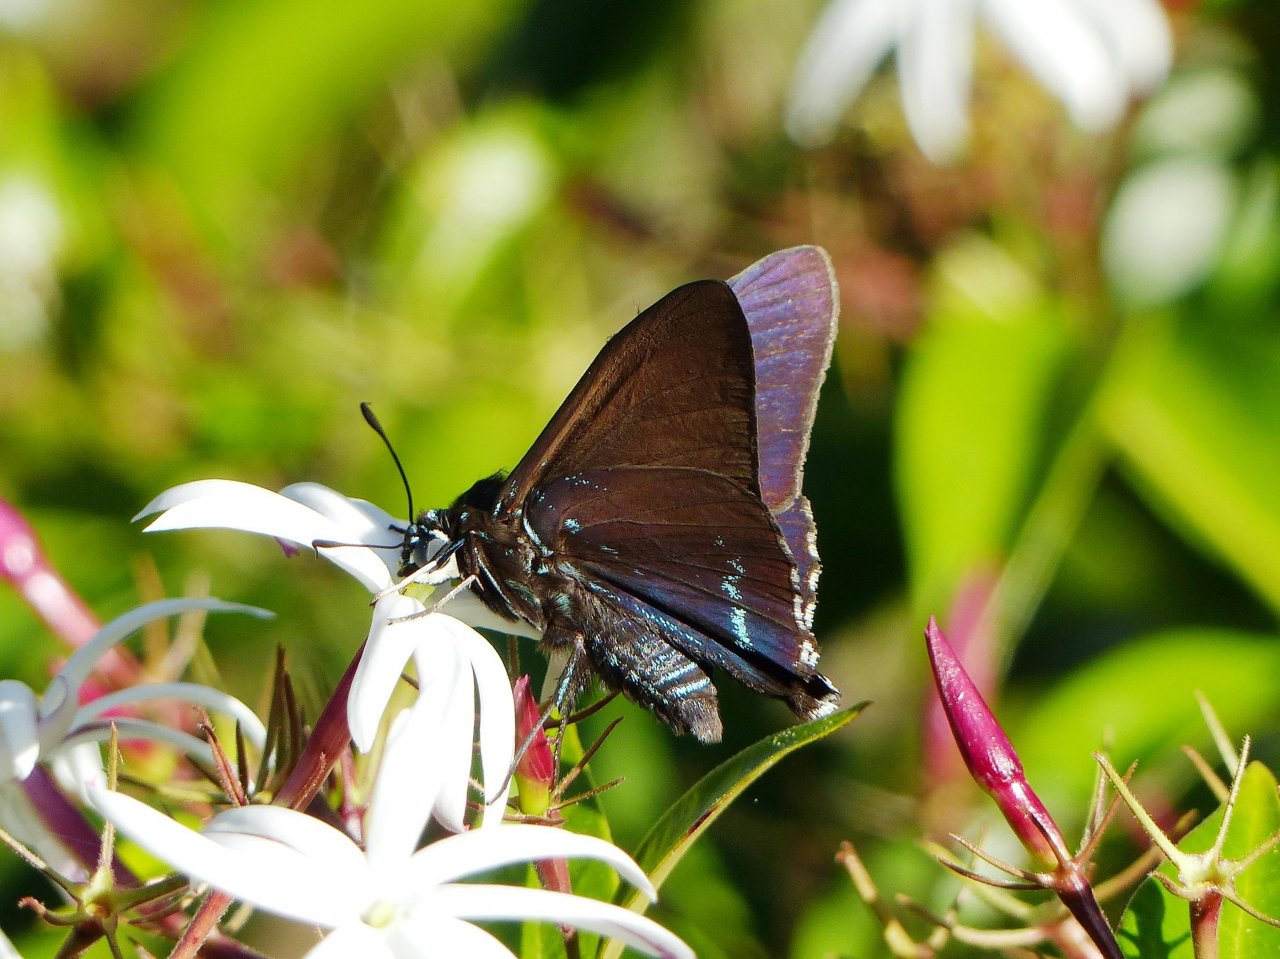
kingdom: Animalia
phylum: Arthropoda
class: Insecta
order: Lepidoptera
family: Hesperiidae
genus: Phocides
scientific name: Phocides pigmalion
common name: Mangrove Skipper
